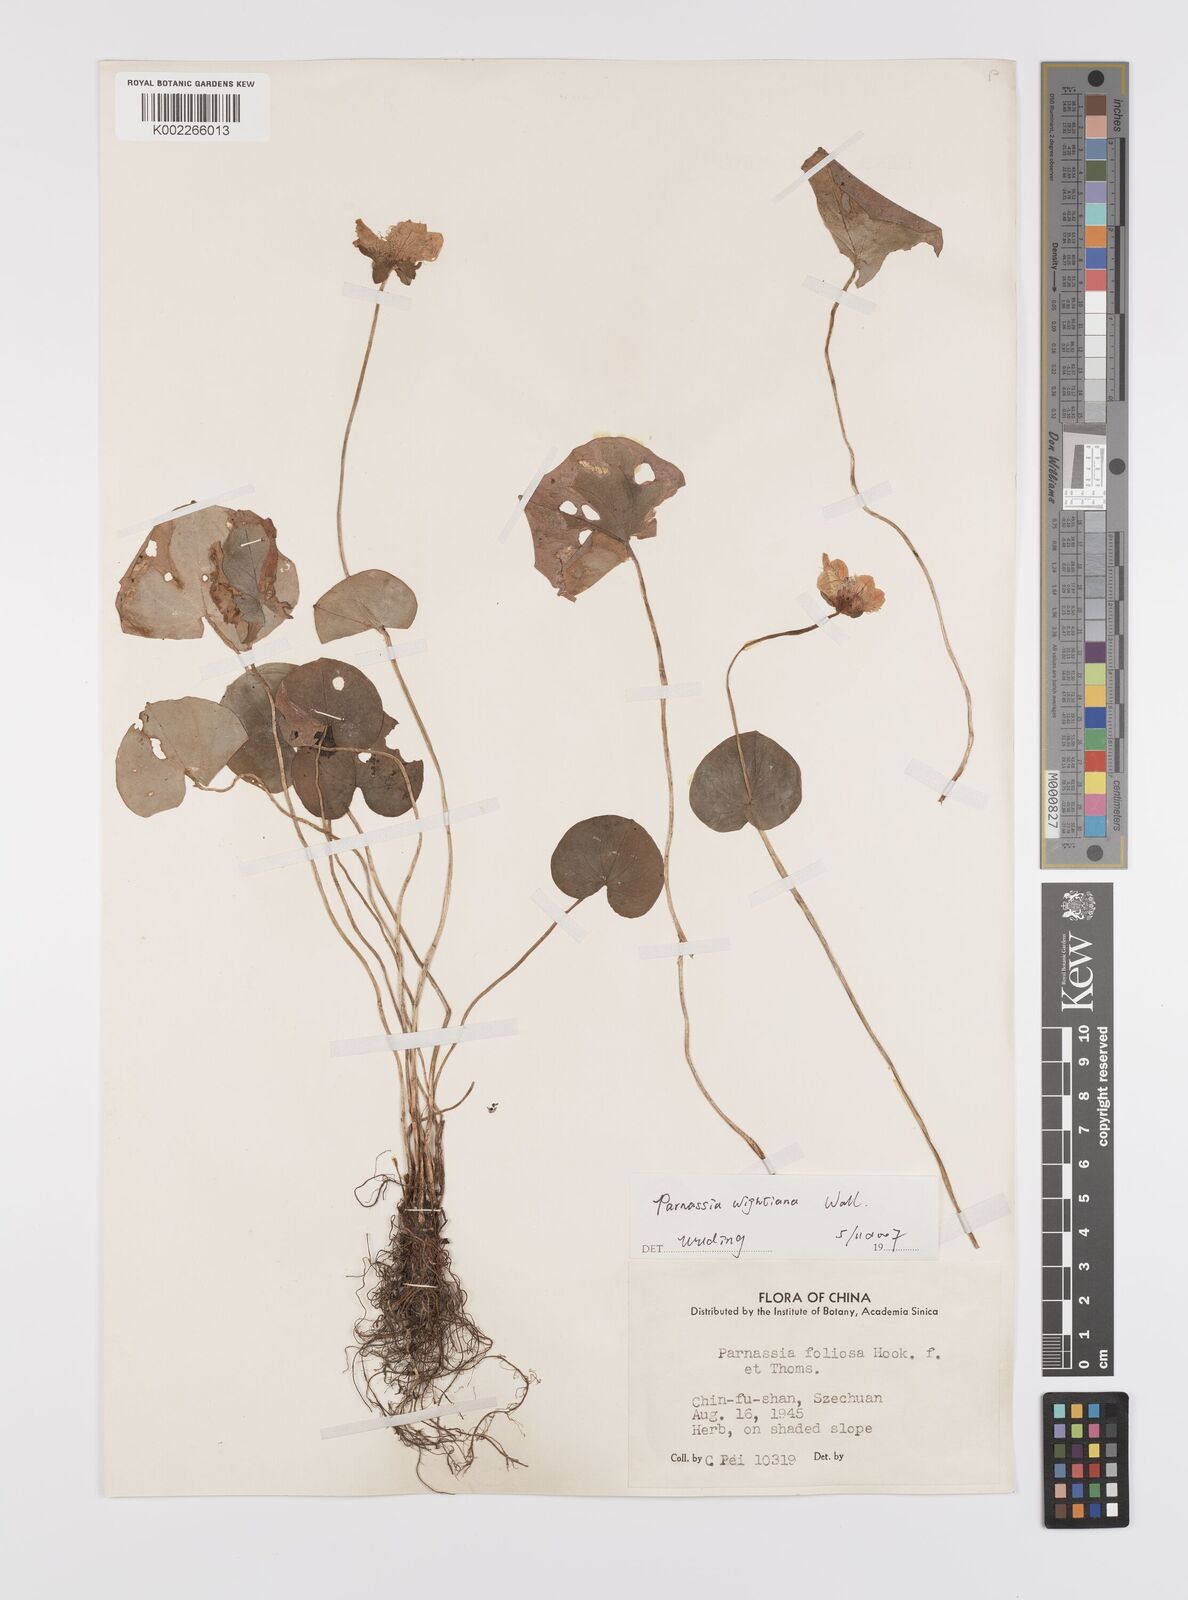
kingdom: Plantae
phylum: Tracheophyta
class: Magnoliopsida
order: Celastrales
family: Parnassiaceae
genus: Parnassia
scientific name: Parnassia wightiana
